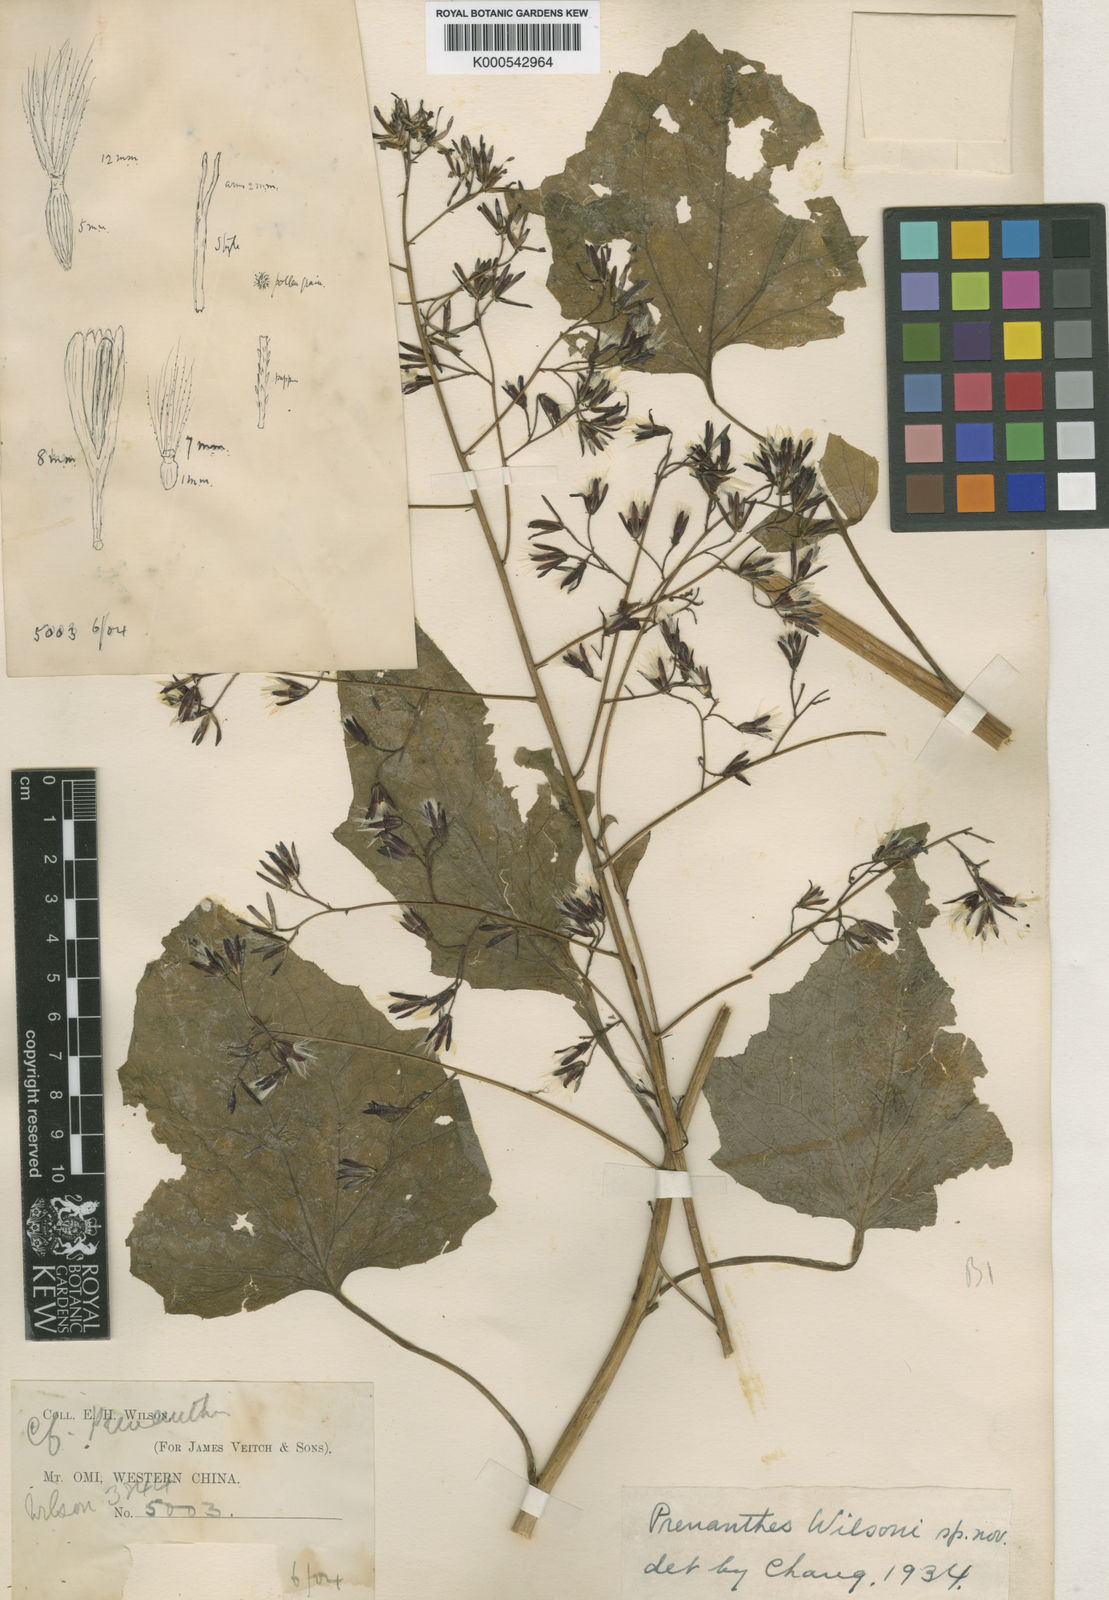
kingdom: Plantae
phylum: Tracheophyta
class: Magnoliopsida
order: Asterales
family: Asteraceae
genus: Paraprenanthes
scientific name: Paraprenanthes wilsonii
